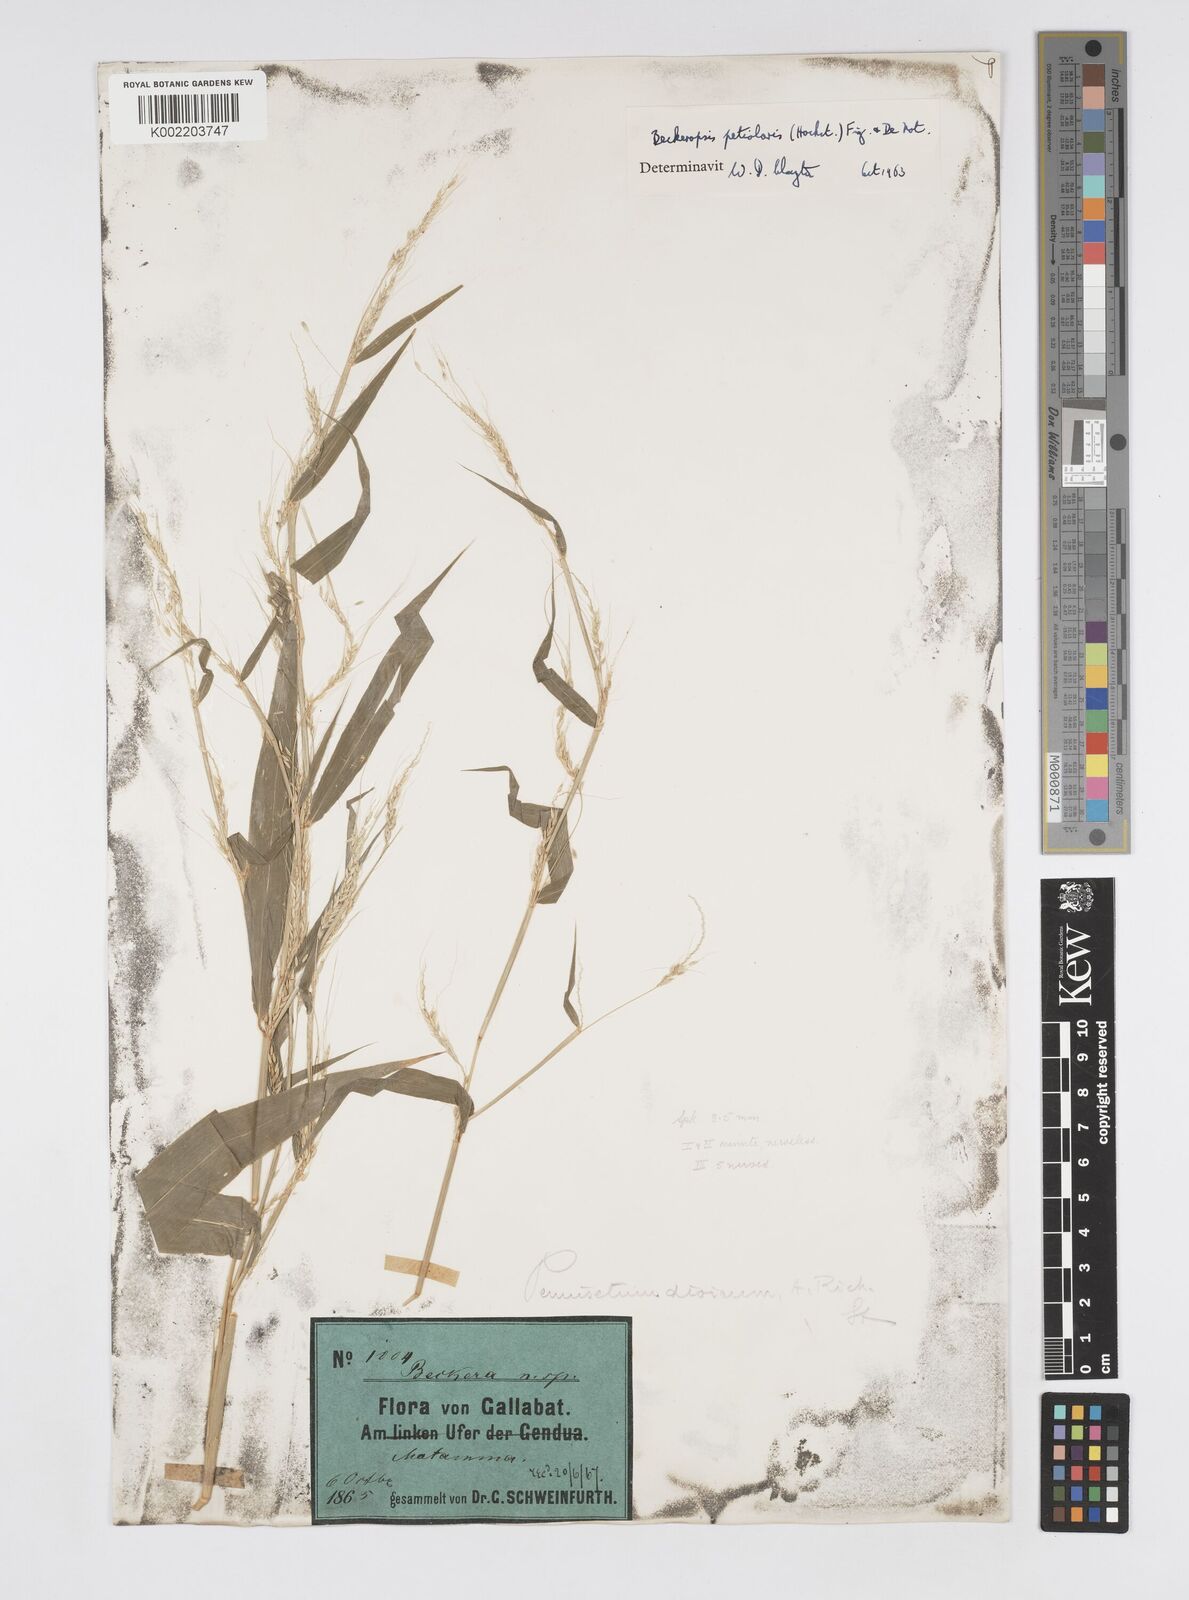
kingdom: Plantae
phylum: Tracheophyta
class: Liliopsida
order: Poales
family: Poaceae
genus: Cenchrus
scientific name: Cenchrus petiolaris
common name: Grass
